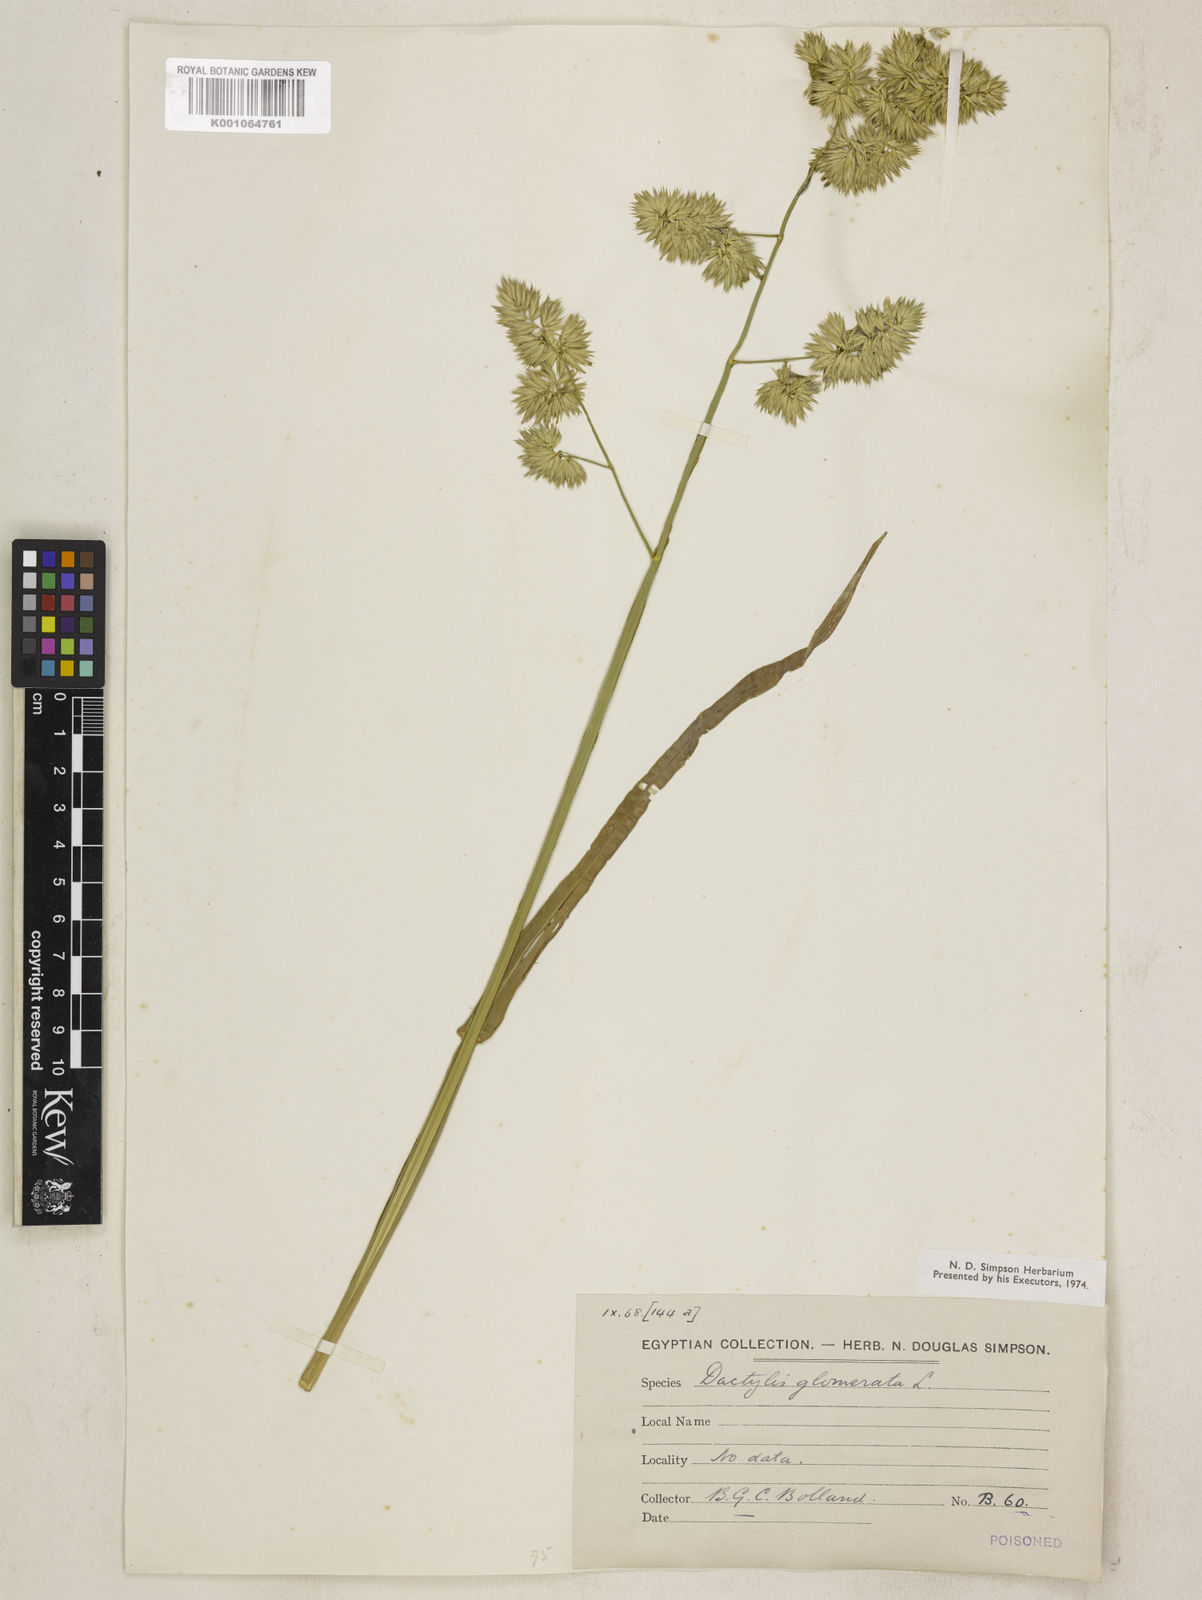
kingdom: Plantae
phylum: Tracheophyta
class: Liliopsida
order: Poales
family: Poaceae
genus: Dactylis
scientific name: Dactylis glomerata
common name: Orchardgrass
